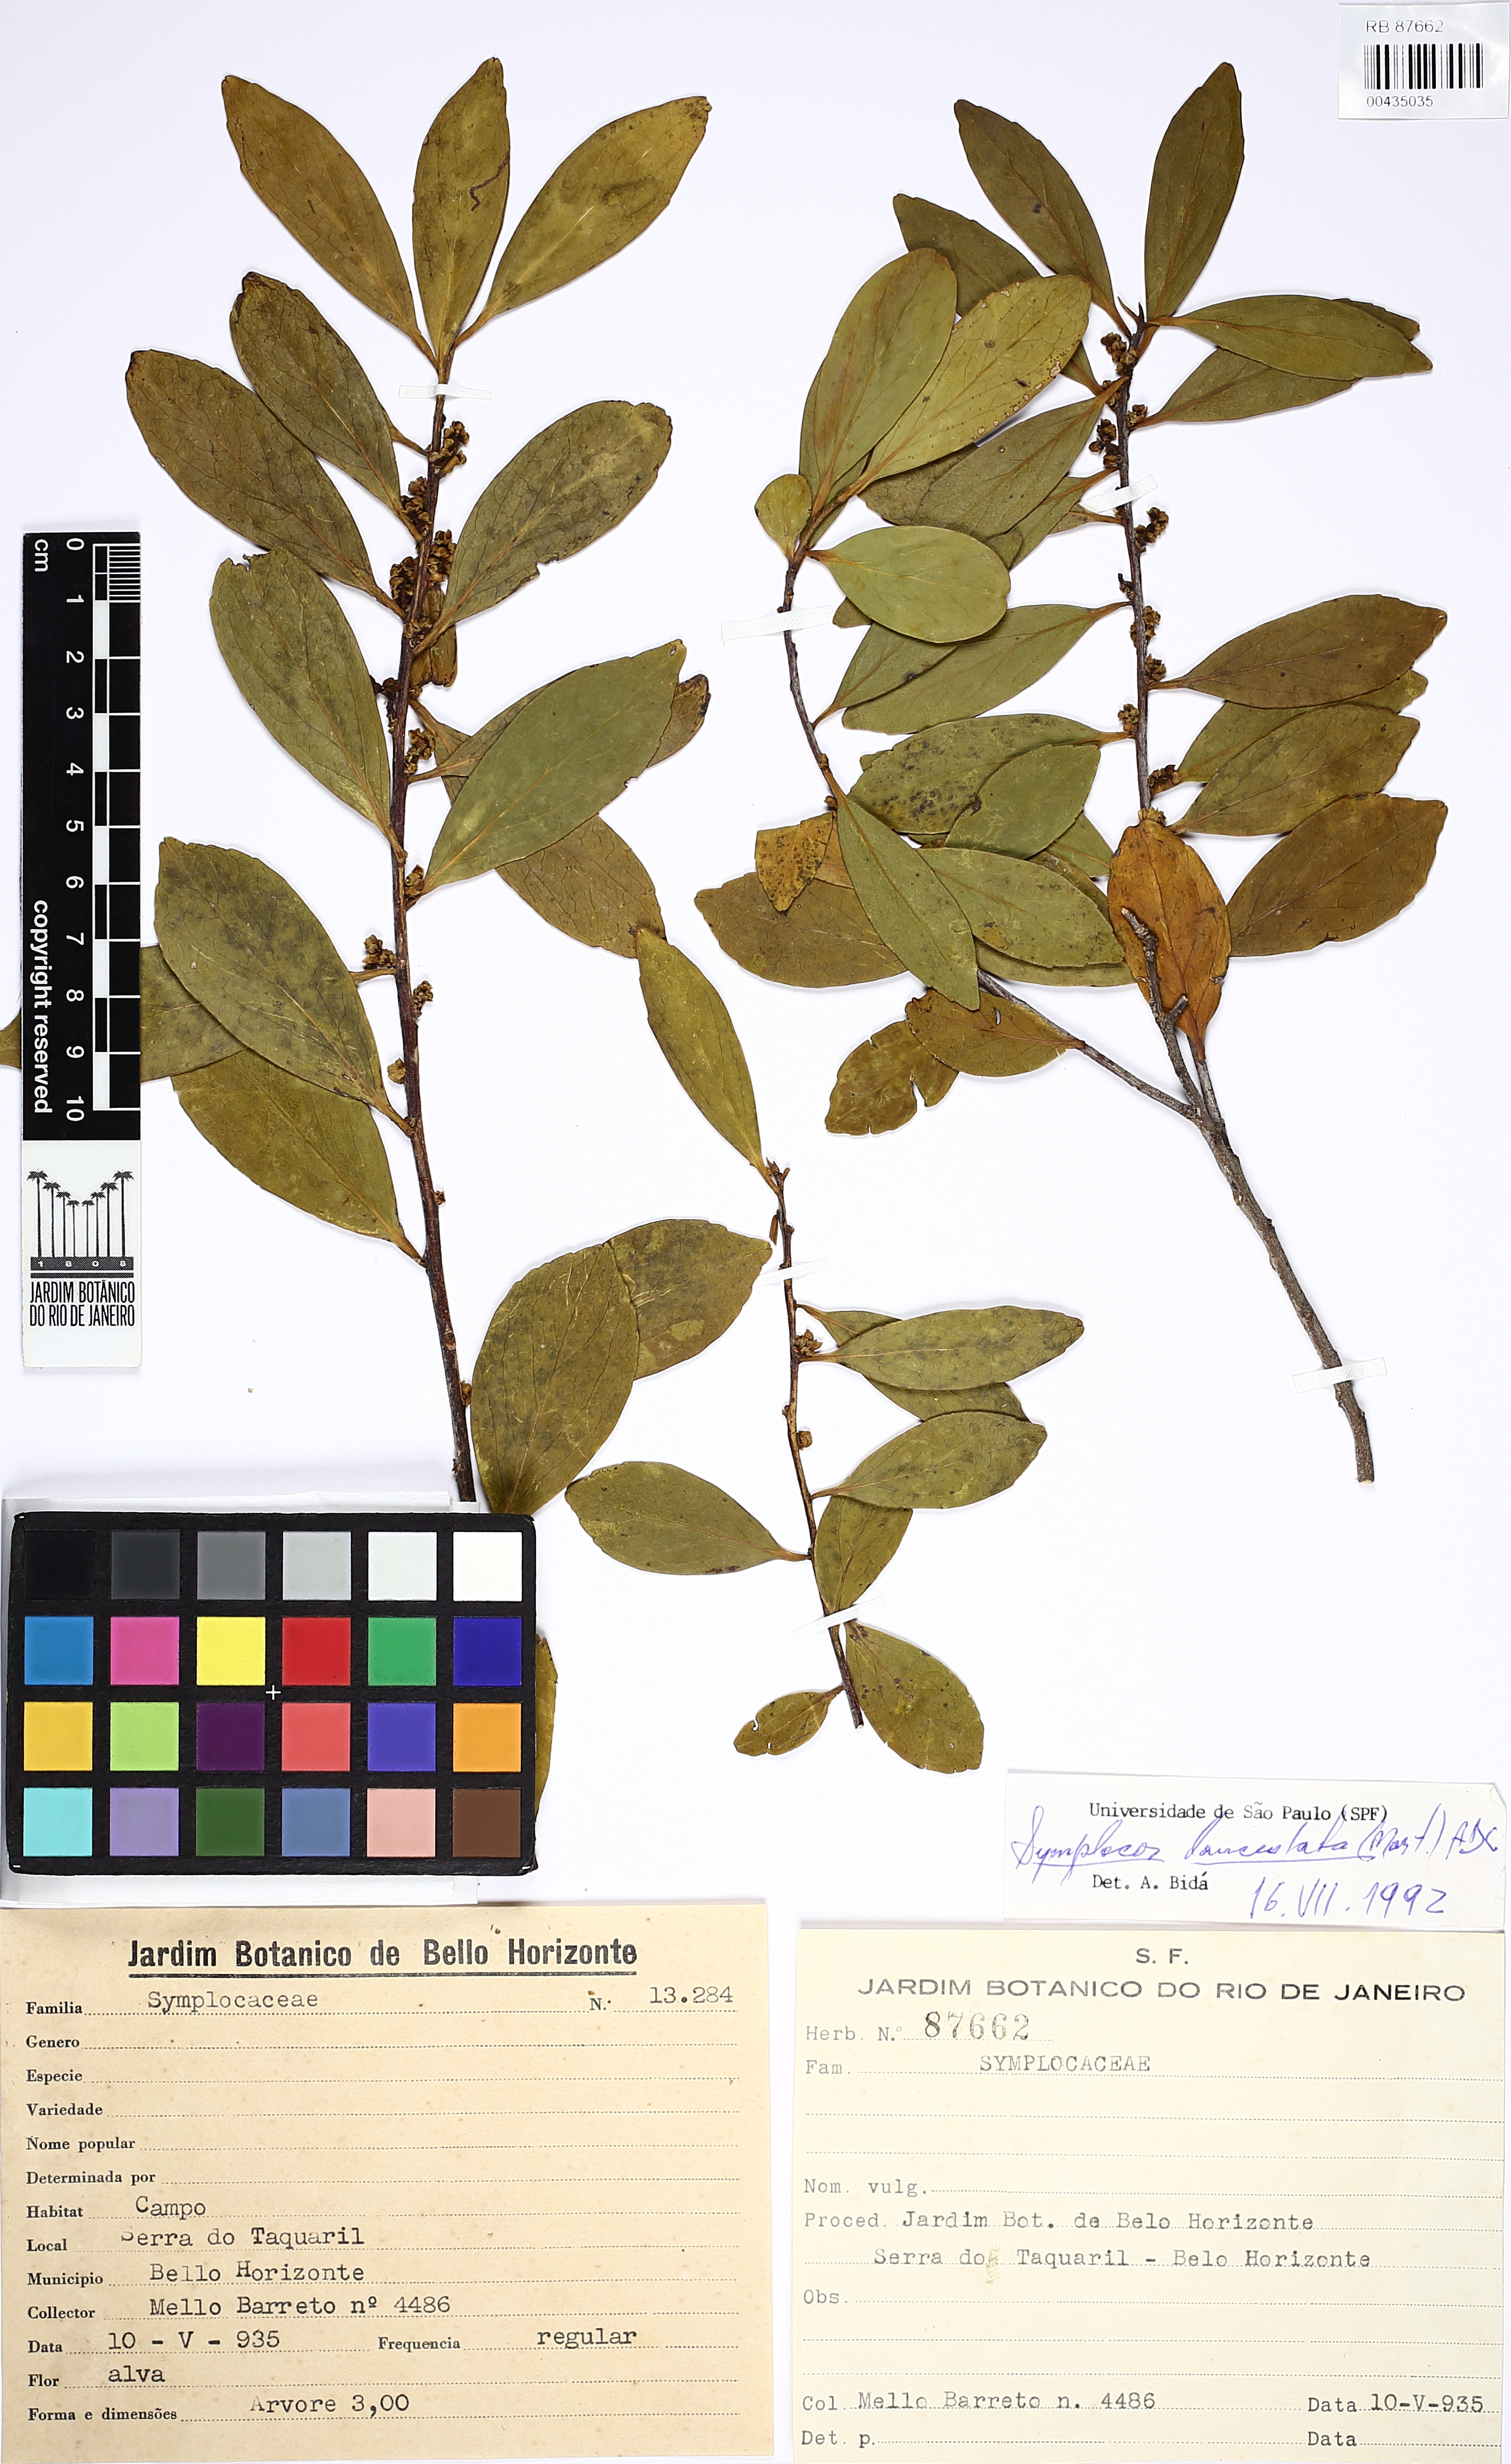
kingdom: Plantae
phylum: Tracheophyta
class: Magnoliopsida
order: Ericales
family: Symplocaceae
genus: Symplocos
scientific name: Symplocos oblongifolia
